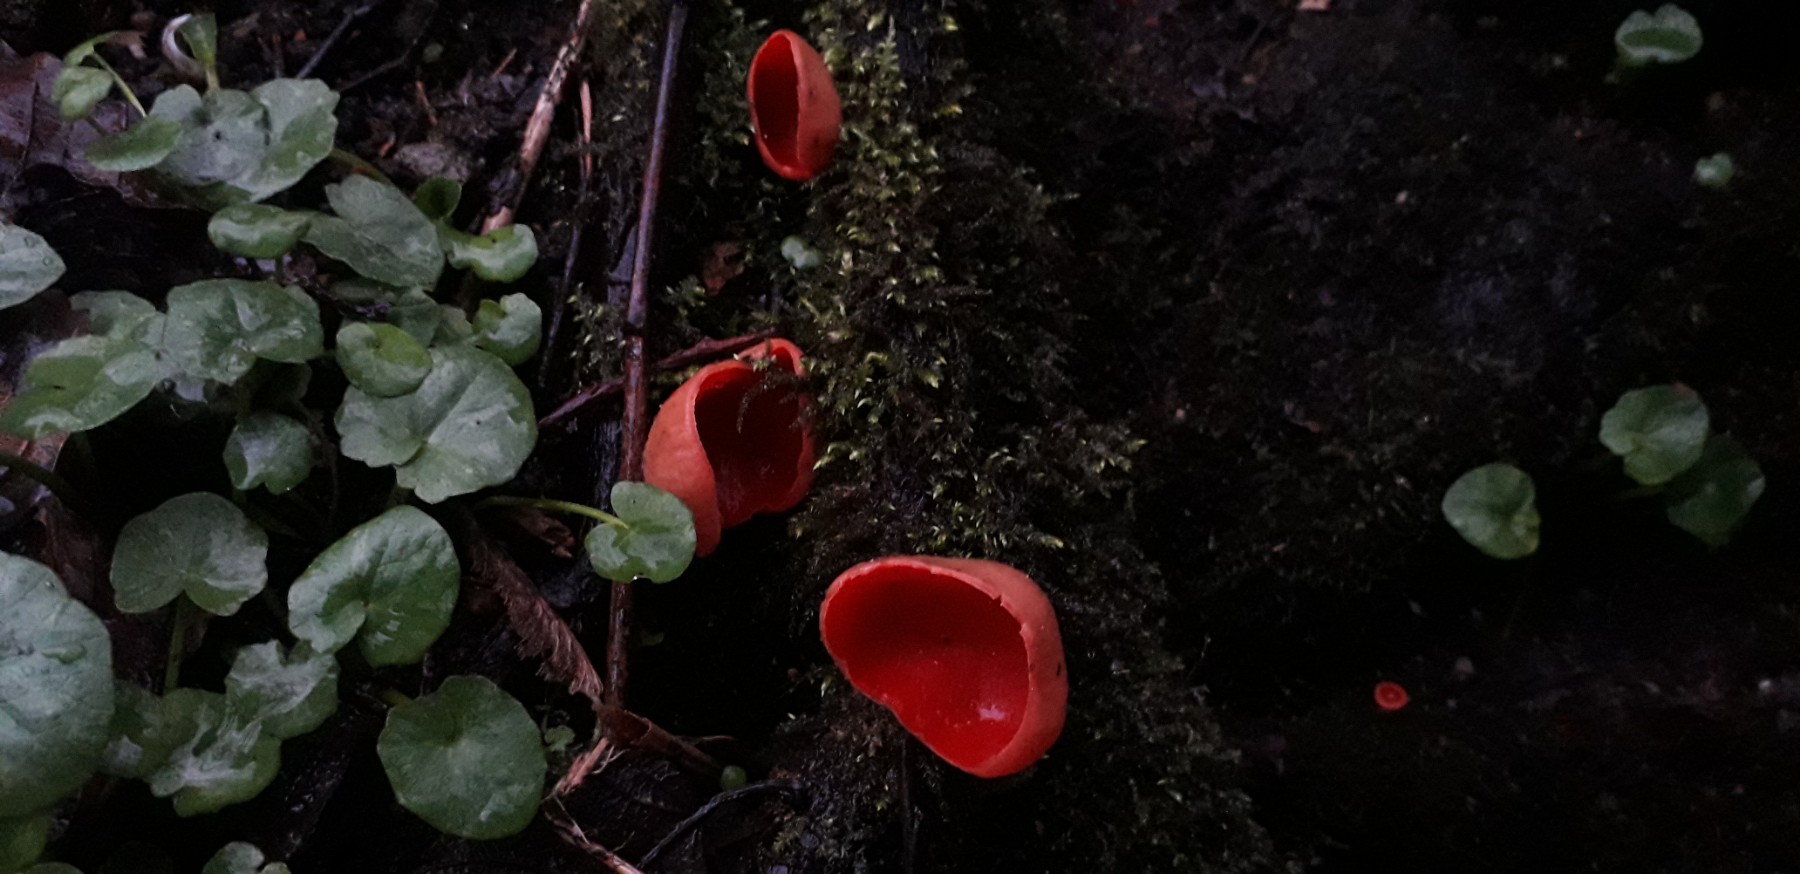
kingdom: Fungi
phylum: Ascomycota
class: Pezizomycetes
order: Pezizales
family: Sarcoscyphaceae
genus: Sarcoscypha
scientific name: Sarcoscypha austriaca
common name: krølhåret pragtbæger
